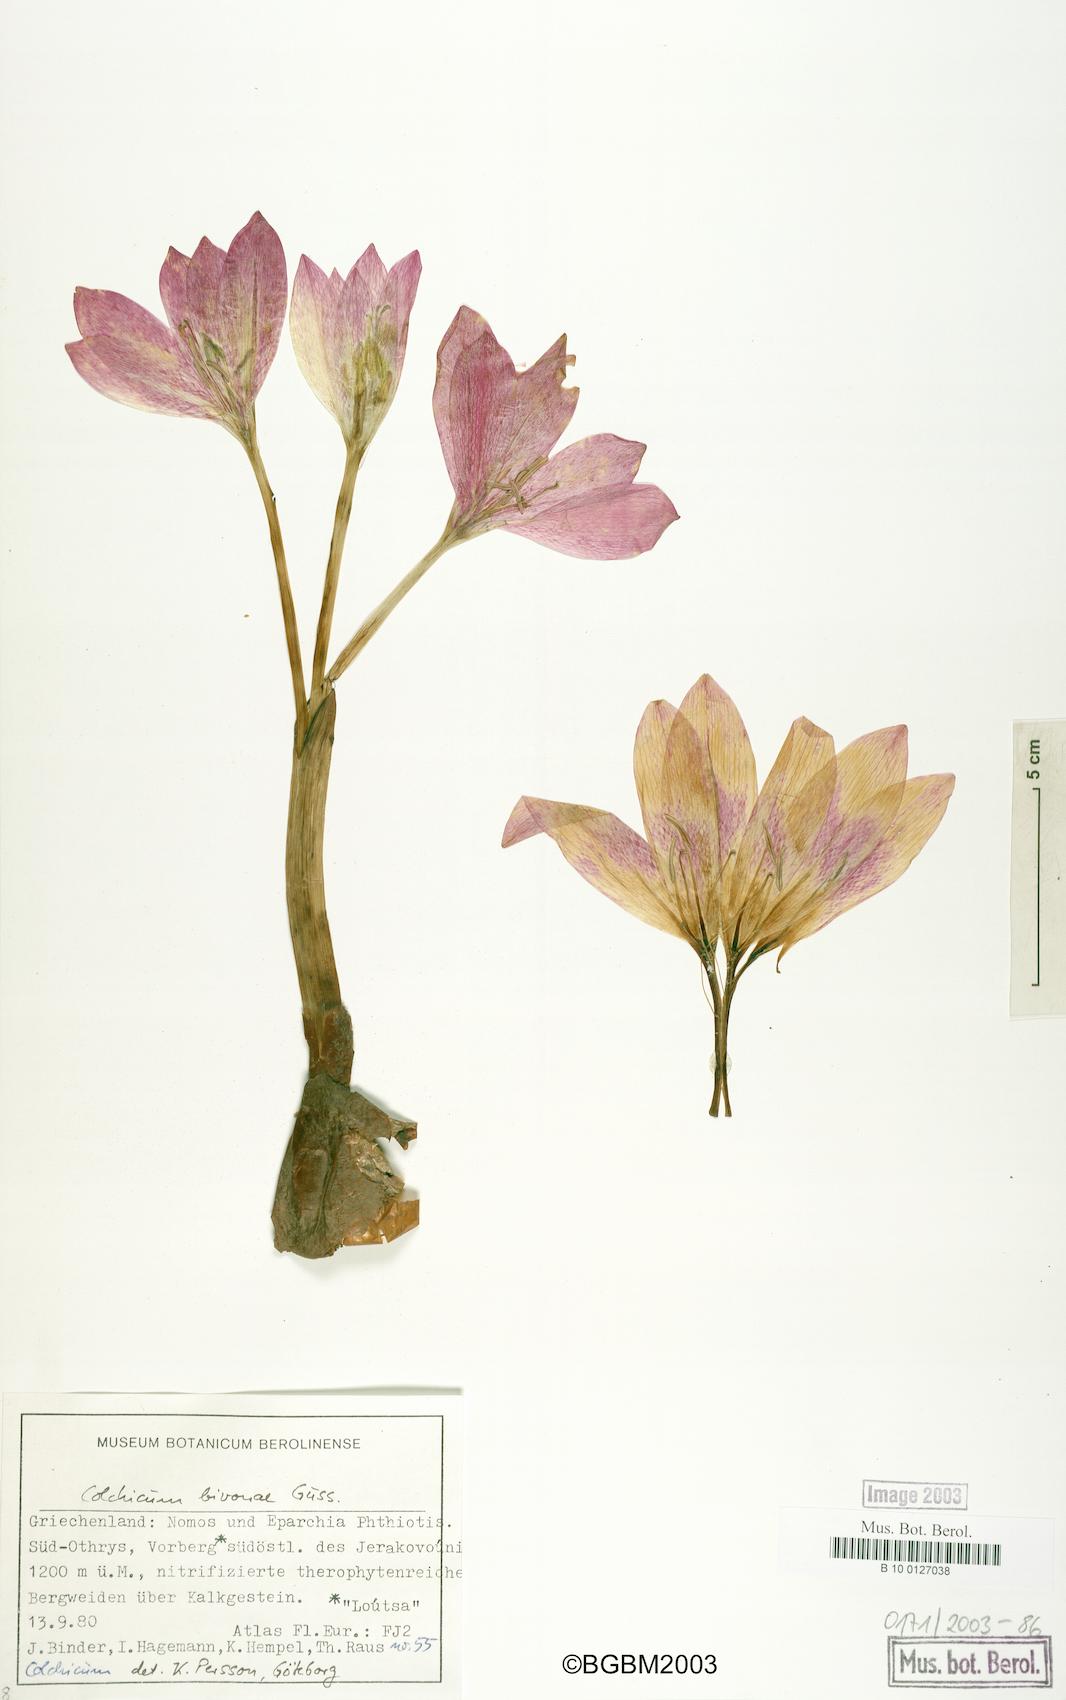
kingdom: Plantae
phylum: Tracheophyta
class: Liliopsida
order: Liliales
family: Colchicaceae
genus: Colchicum
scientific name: Colchicum bivonae
